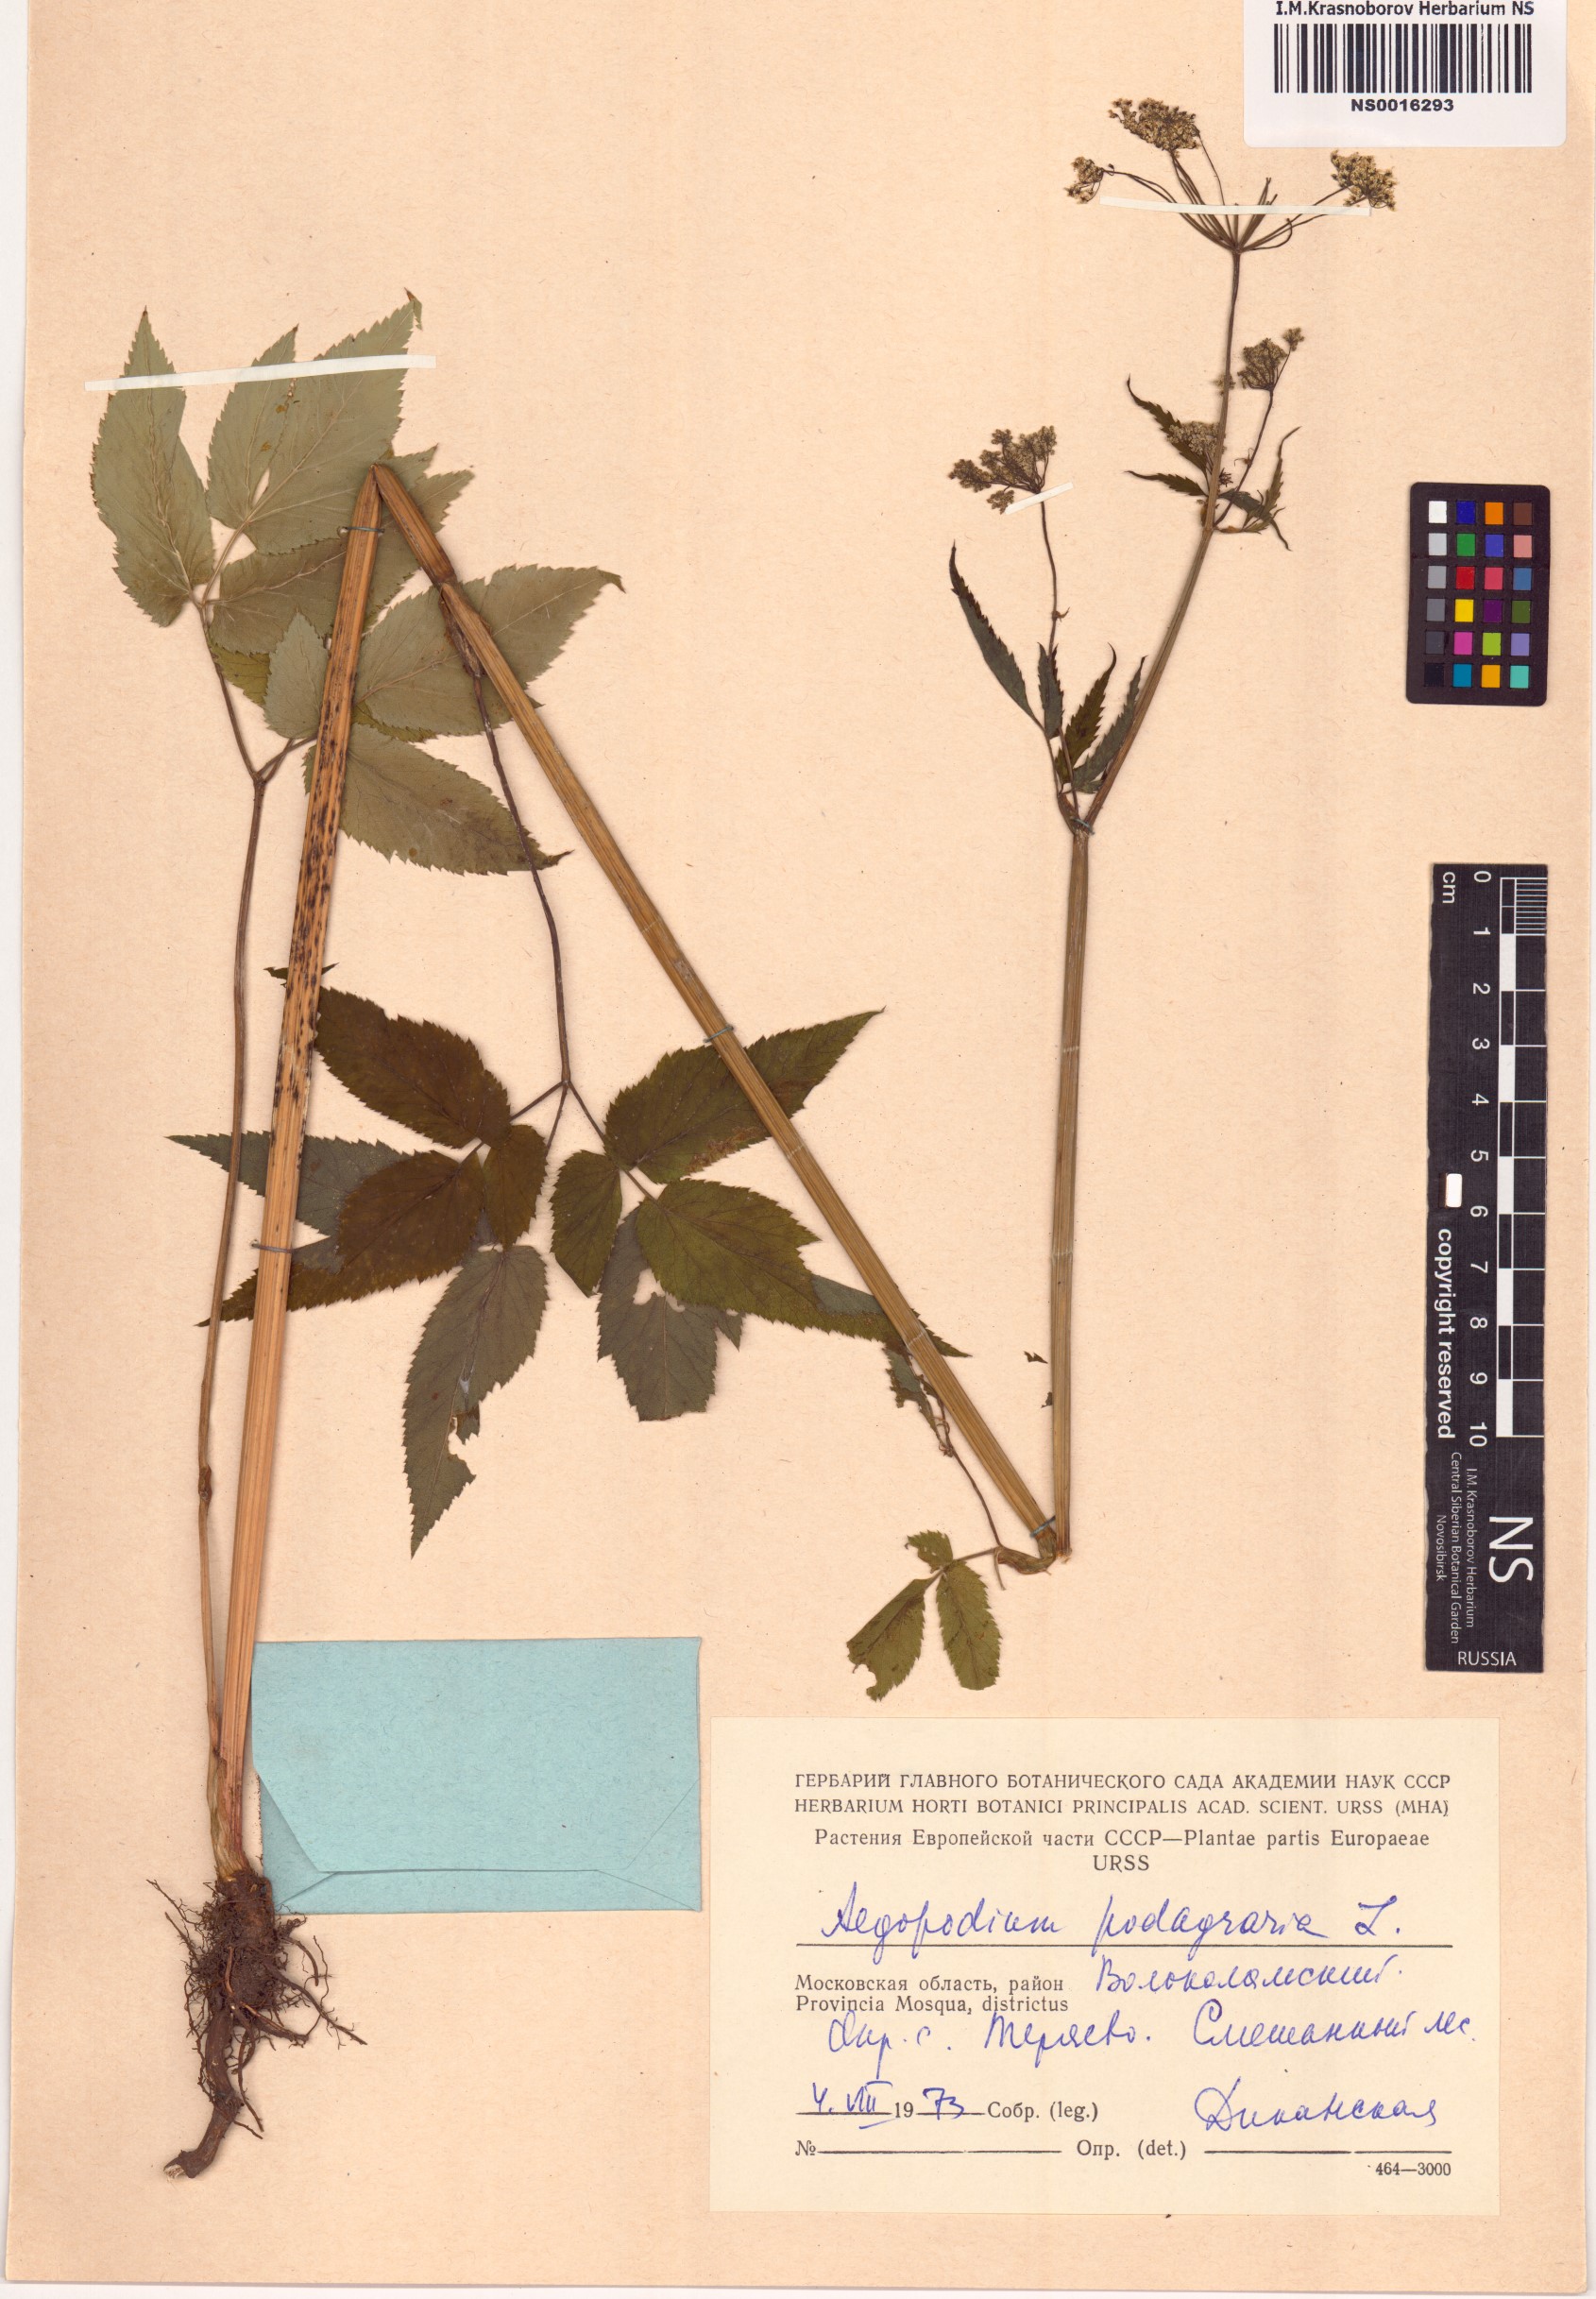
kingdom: Plantae
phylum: Tracheophyta
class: Magnoliopsida
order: Apiales
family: Apiaceae
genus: Aegopodium
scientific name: Aegopodium podagraria
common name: Ground-elder
